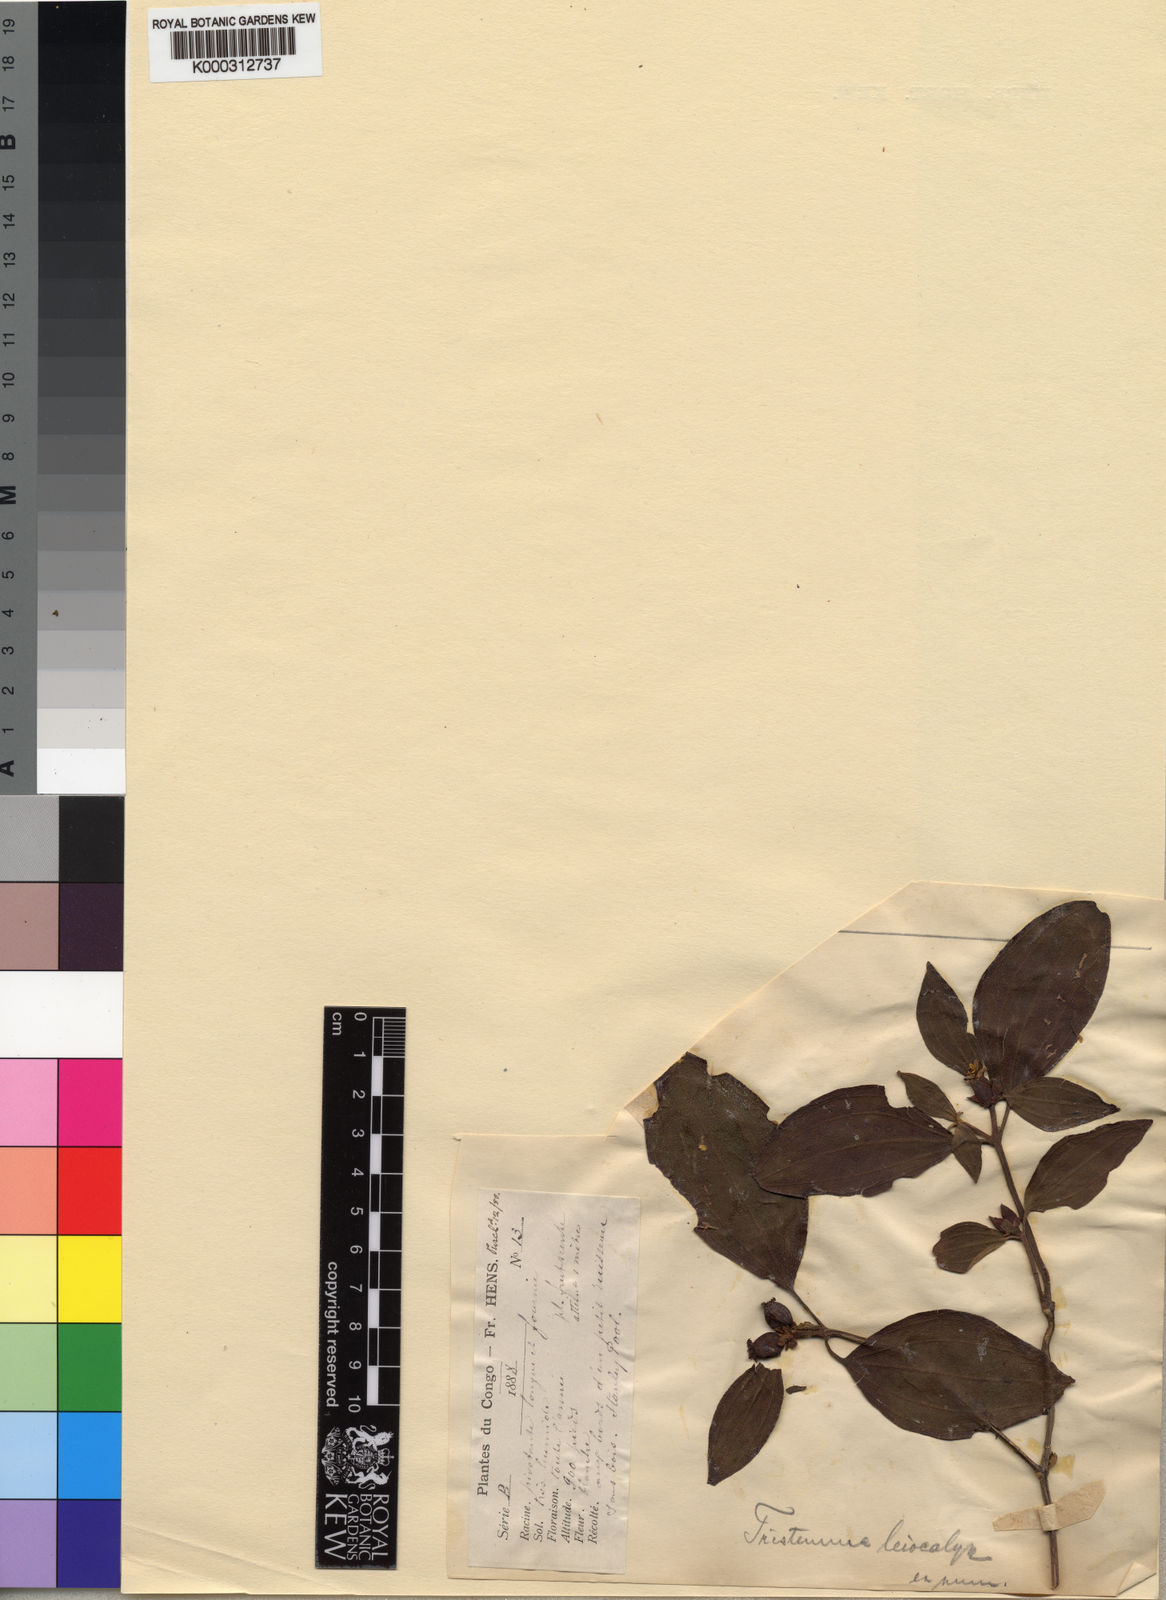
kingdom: Plantae
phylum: Tracheophyta
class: Magnoliopsida
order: Myrtales
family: Melastomataceae
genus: Tristemma
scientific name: Tristemma leiocalyx
